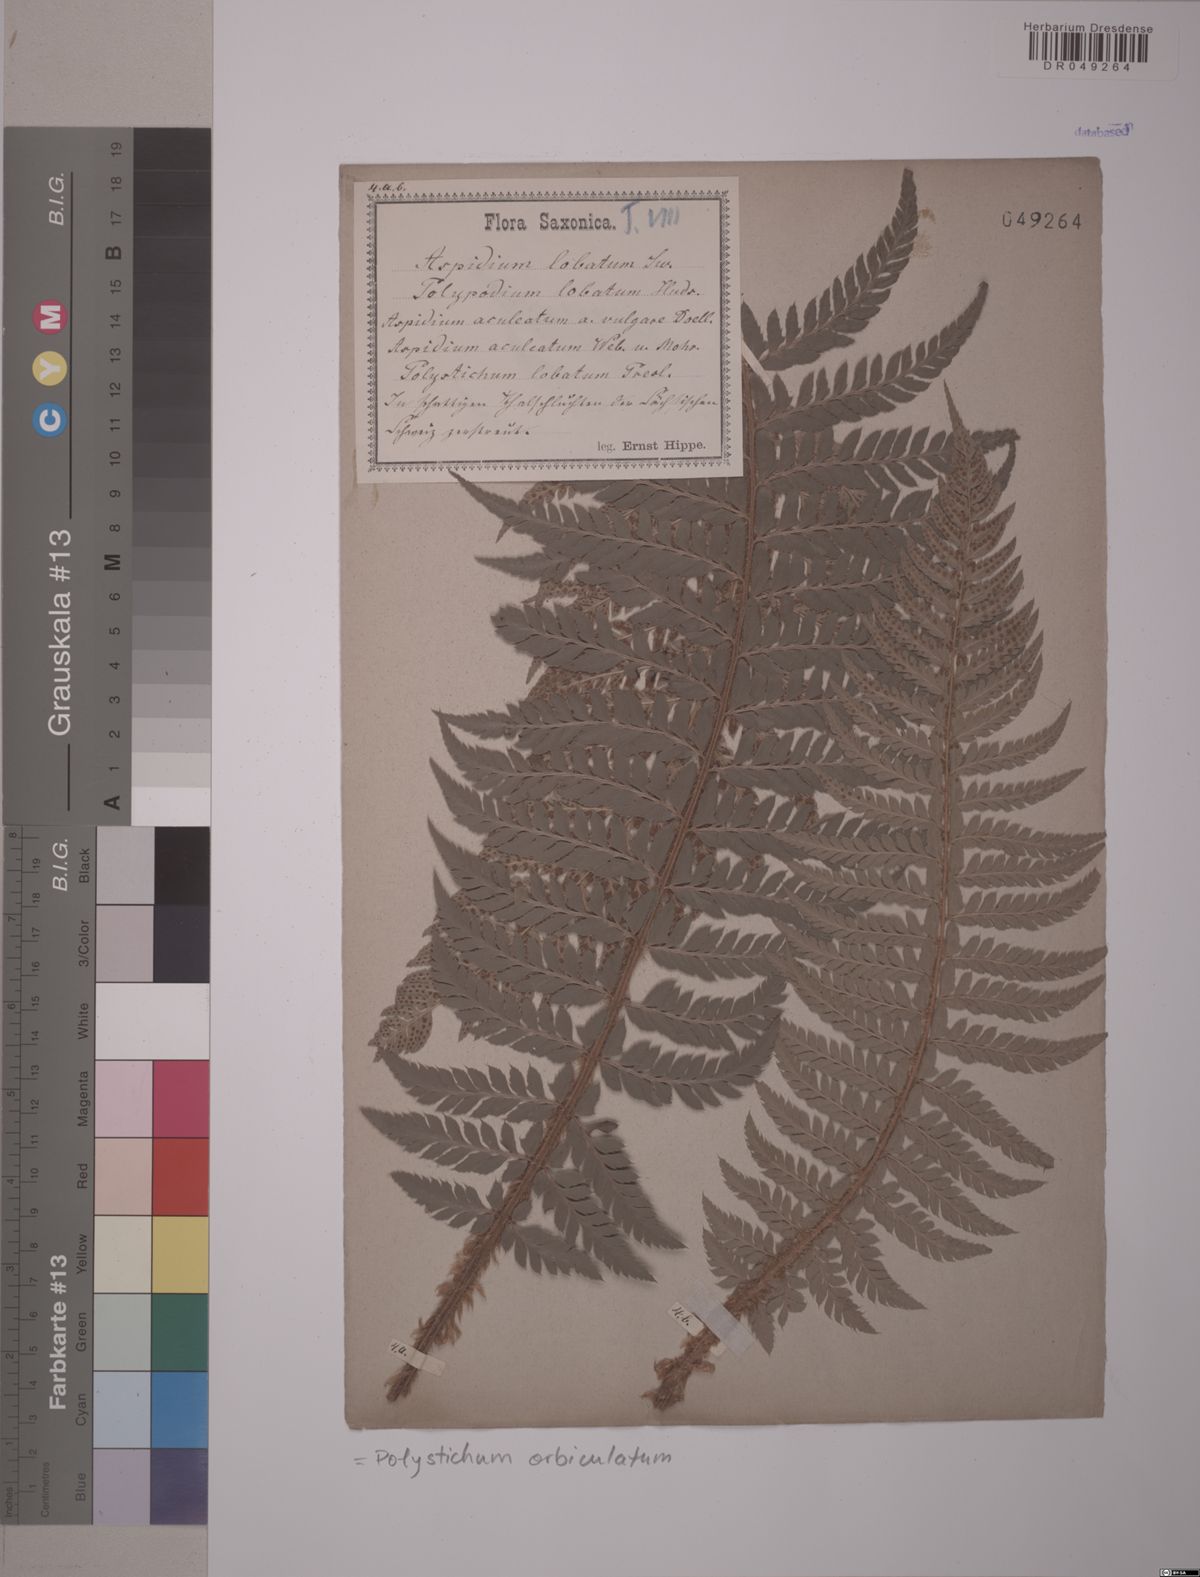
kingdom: Plantae
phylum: Tracheophyta
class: Polypodiopsida
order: Polypodiales
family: Dryopteridaceae
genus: Polystichum
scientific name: Polystichum aculeatum
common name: Hard shield-fern
